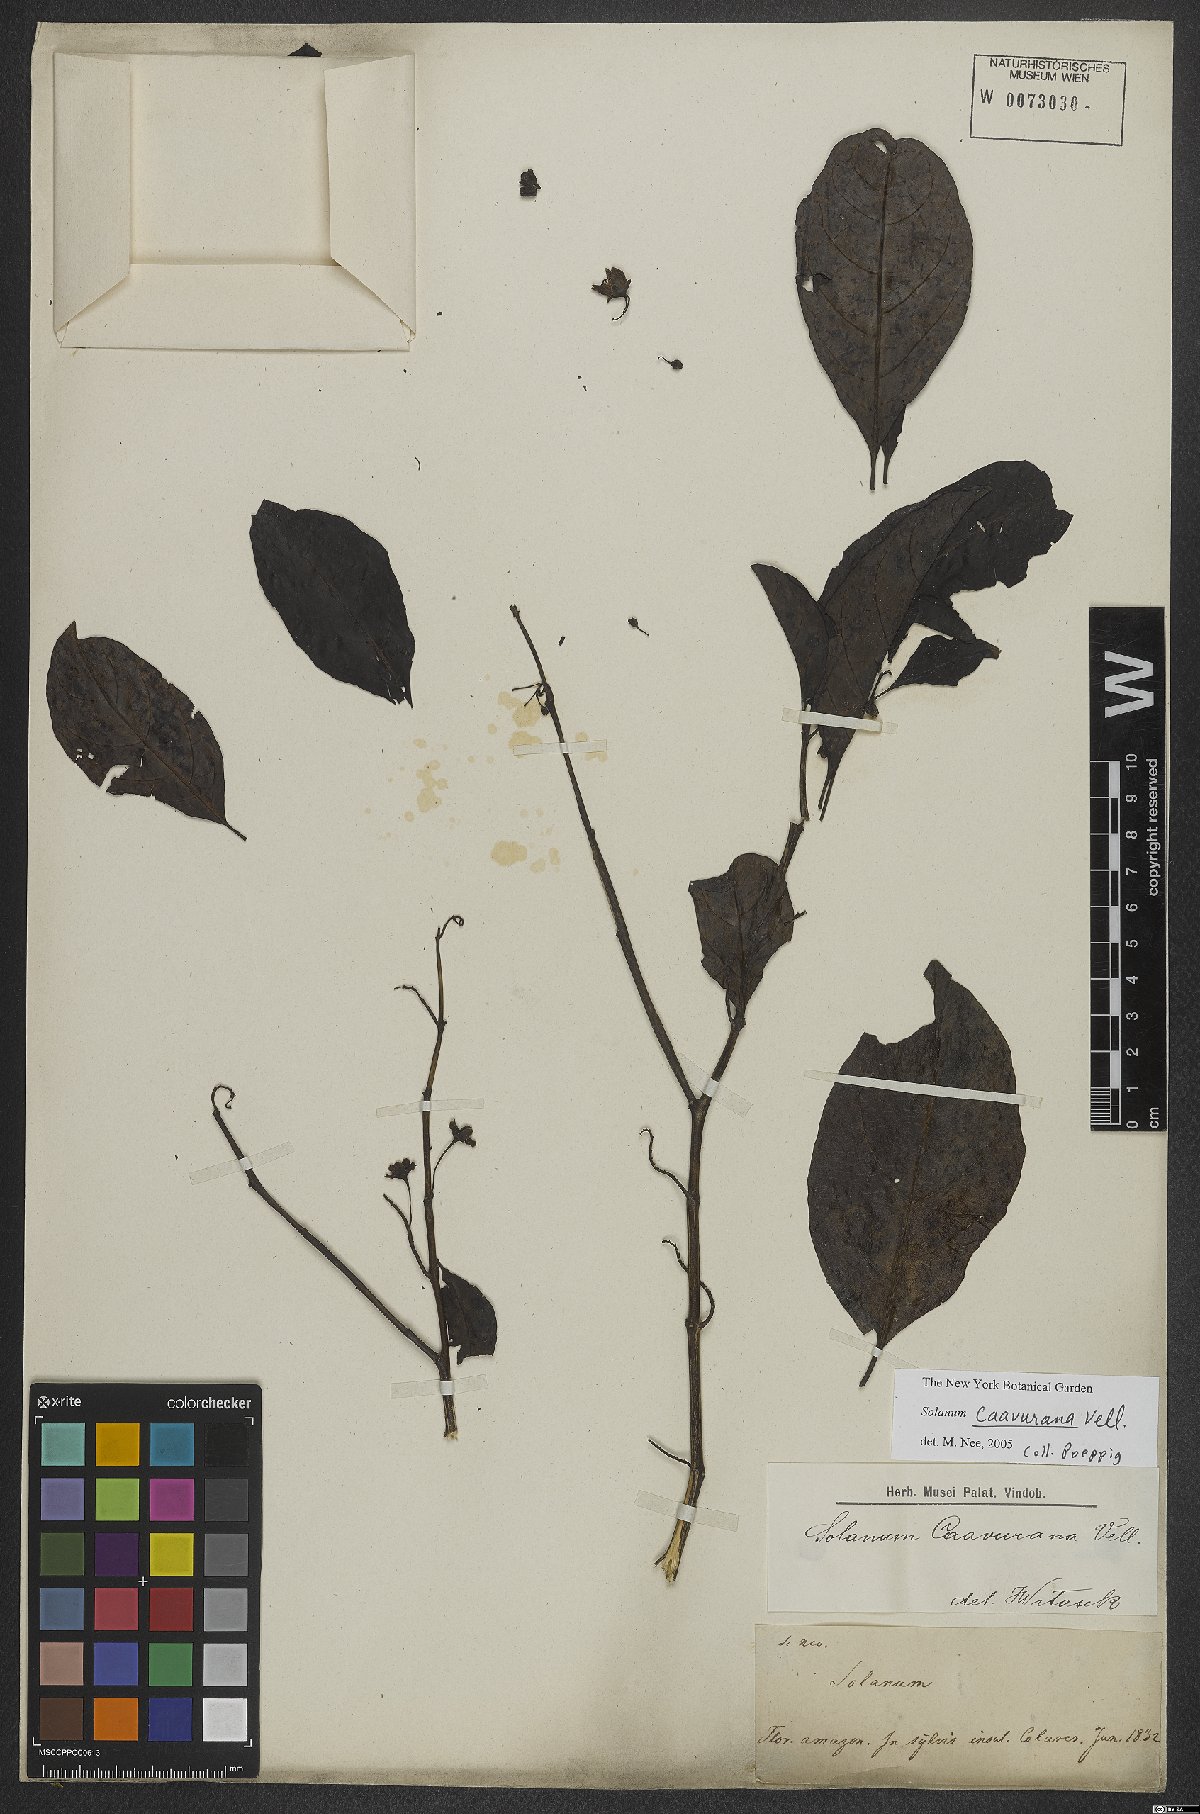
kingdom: Plantae
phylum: Tracheophyta
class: Magnoliopsida
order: Solanales
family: Solanaceae
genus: Solanum
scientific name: Solanum caavurana
